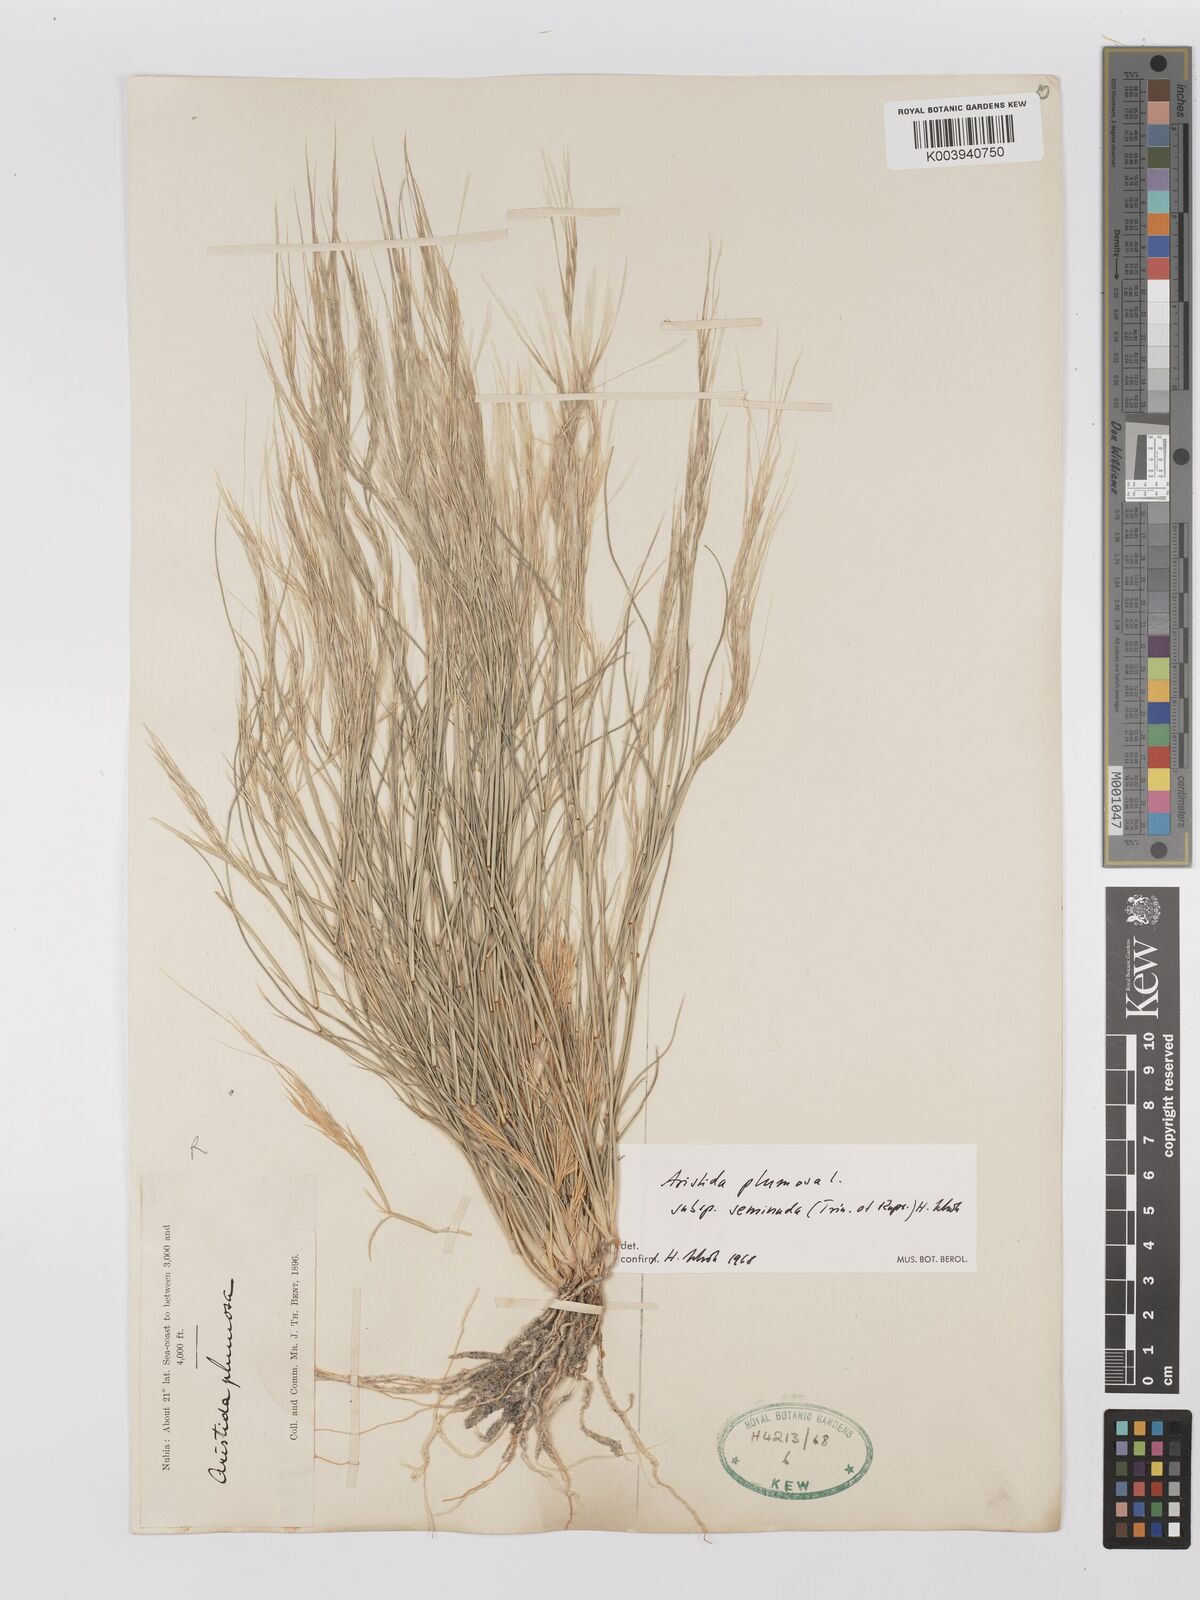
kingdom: Plantae
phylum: Tracheophyta
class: Liliopsida
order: Poales
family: Poaceae
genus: Stipagrostis
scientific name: Stipagrostis plumosa
